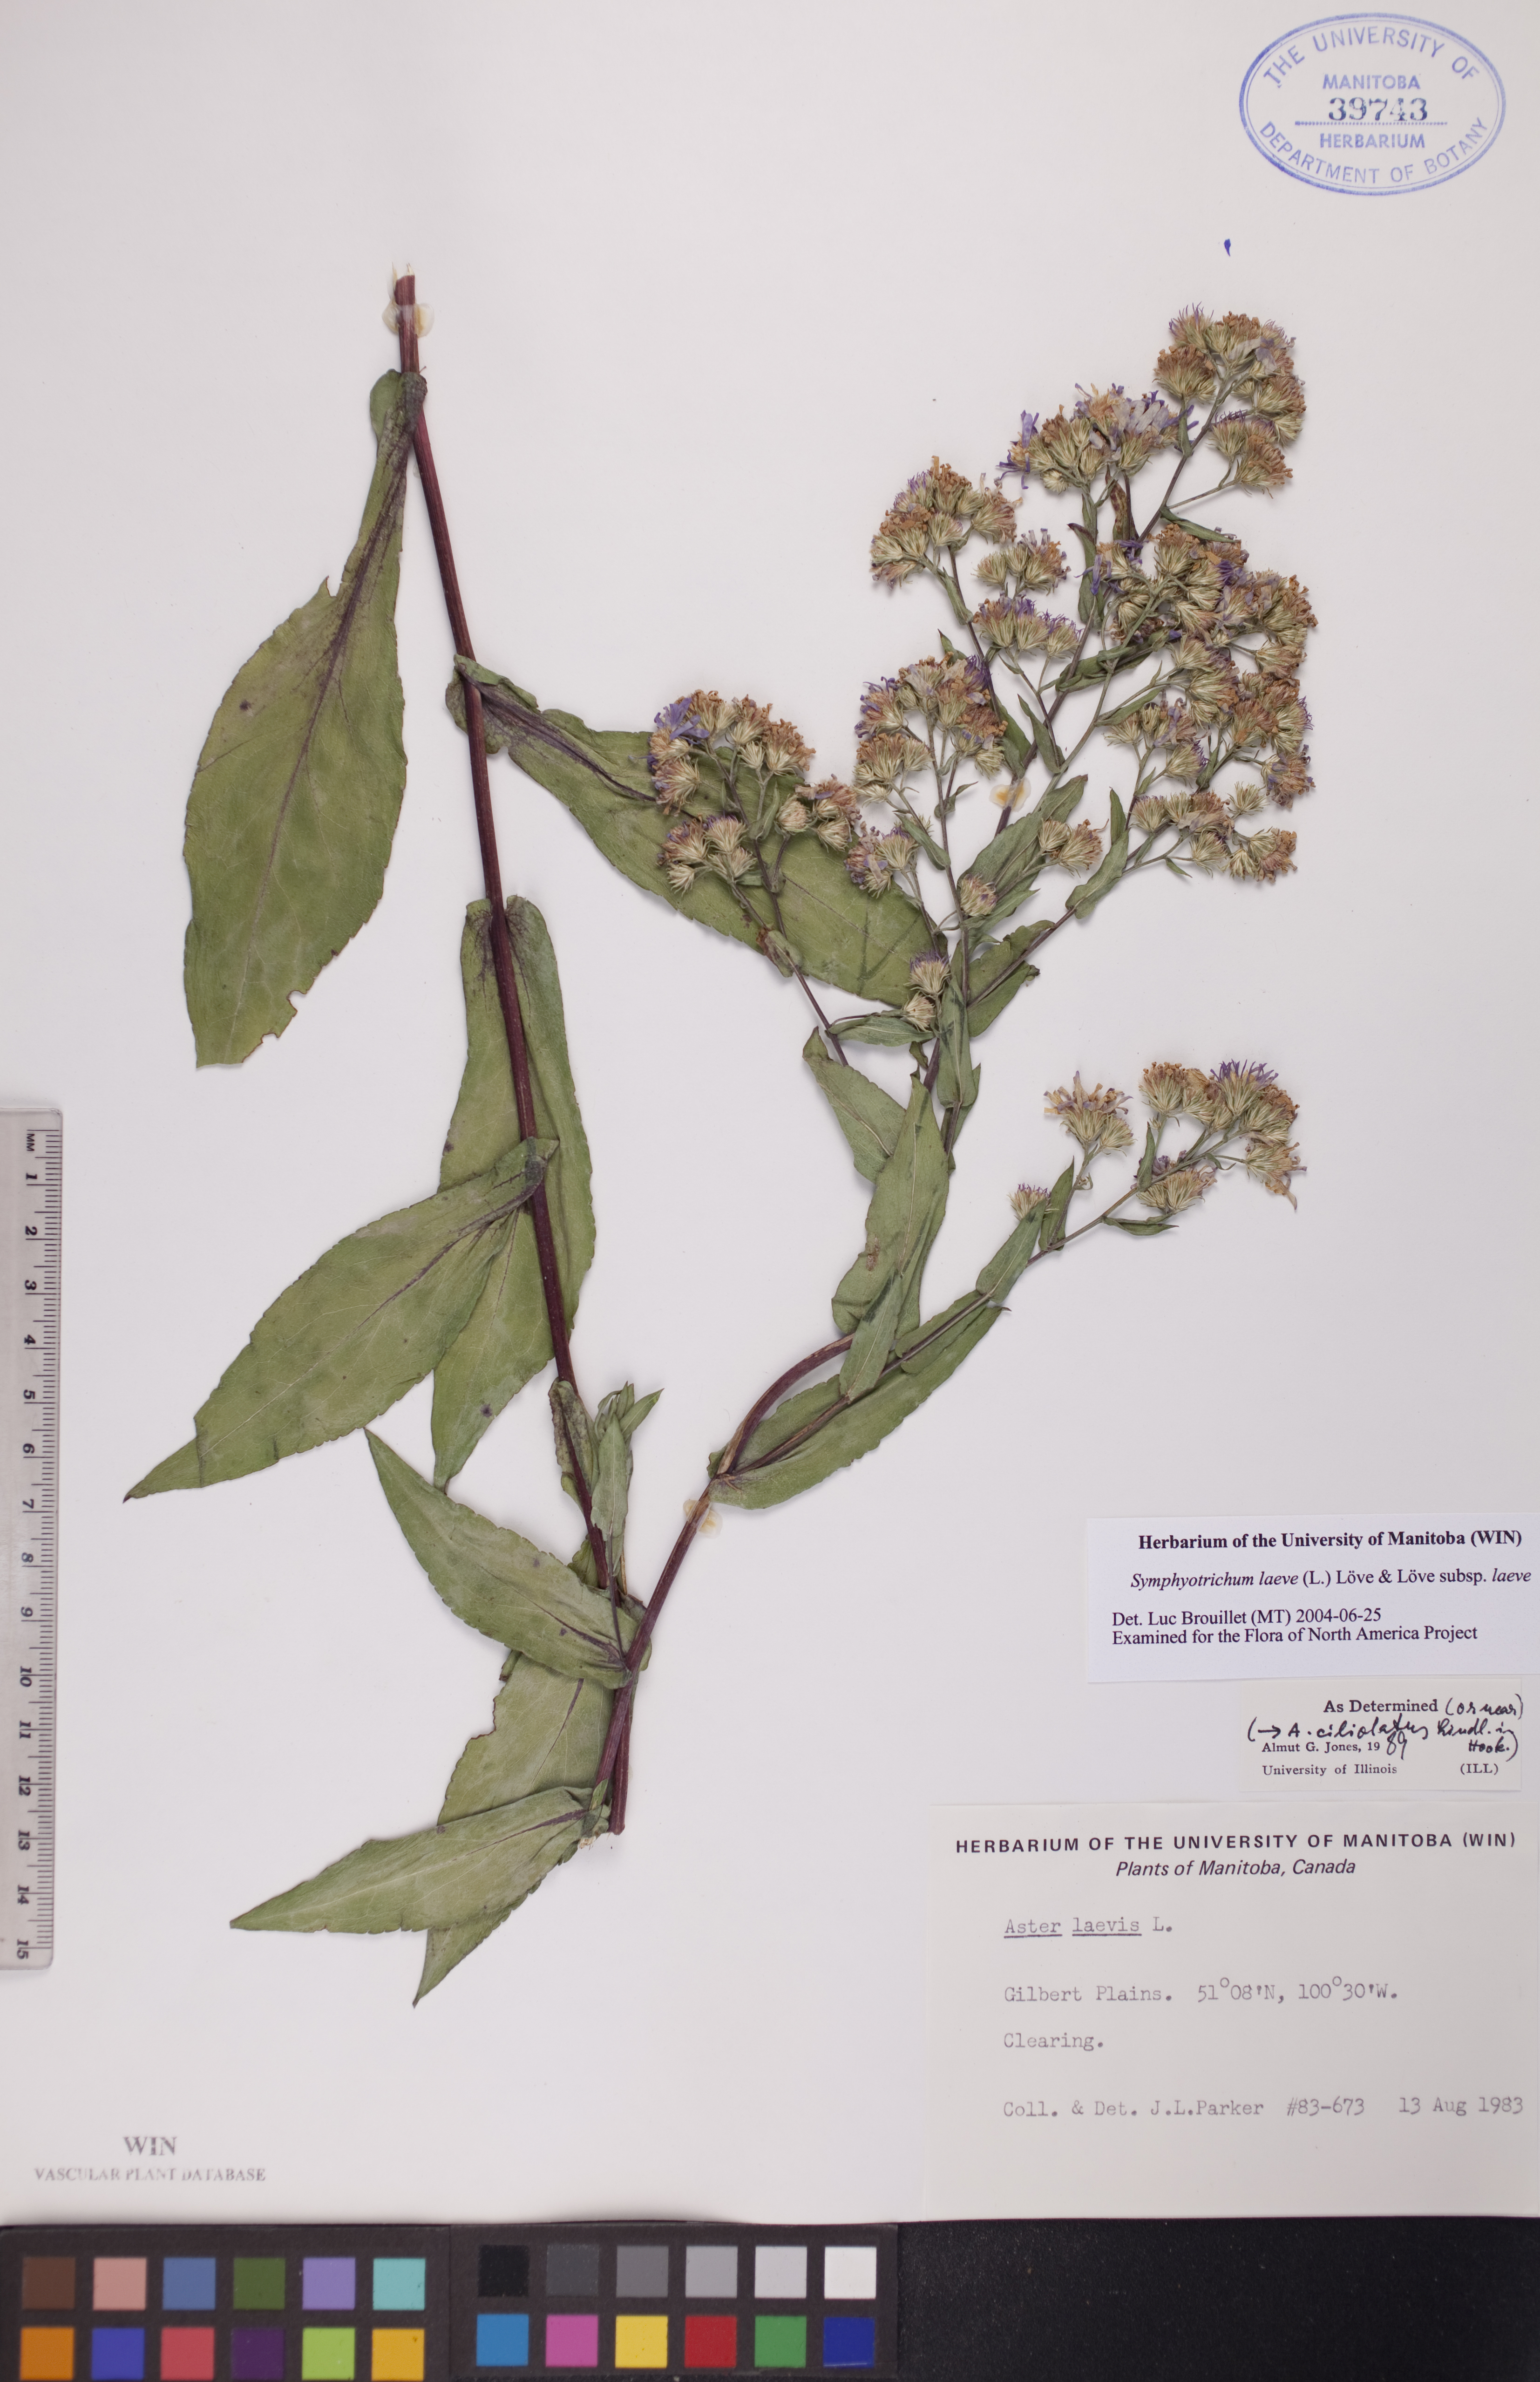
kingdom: Plantae
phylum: Tracheophyta
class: Magnoliopsida
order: Asterales
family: Asteraceae
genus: Symphyotrichum
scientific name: Symphyotrichum laeve
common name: Glaucous aster
